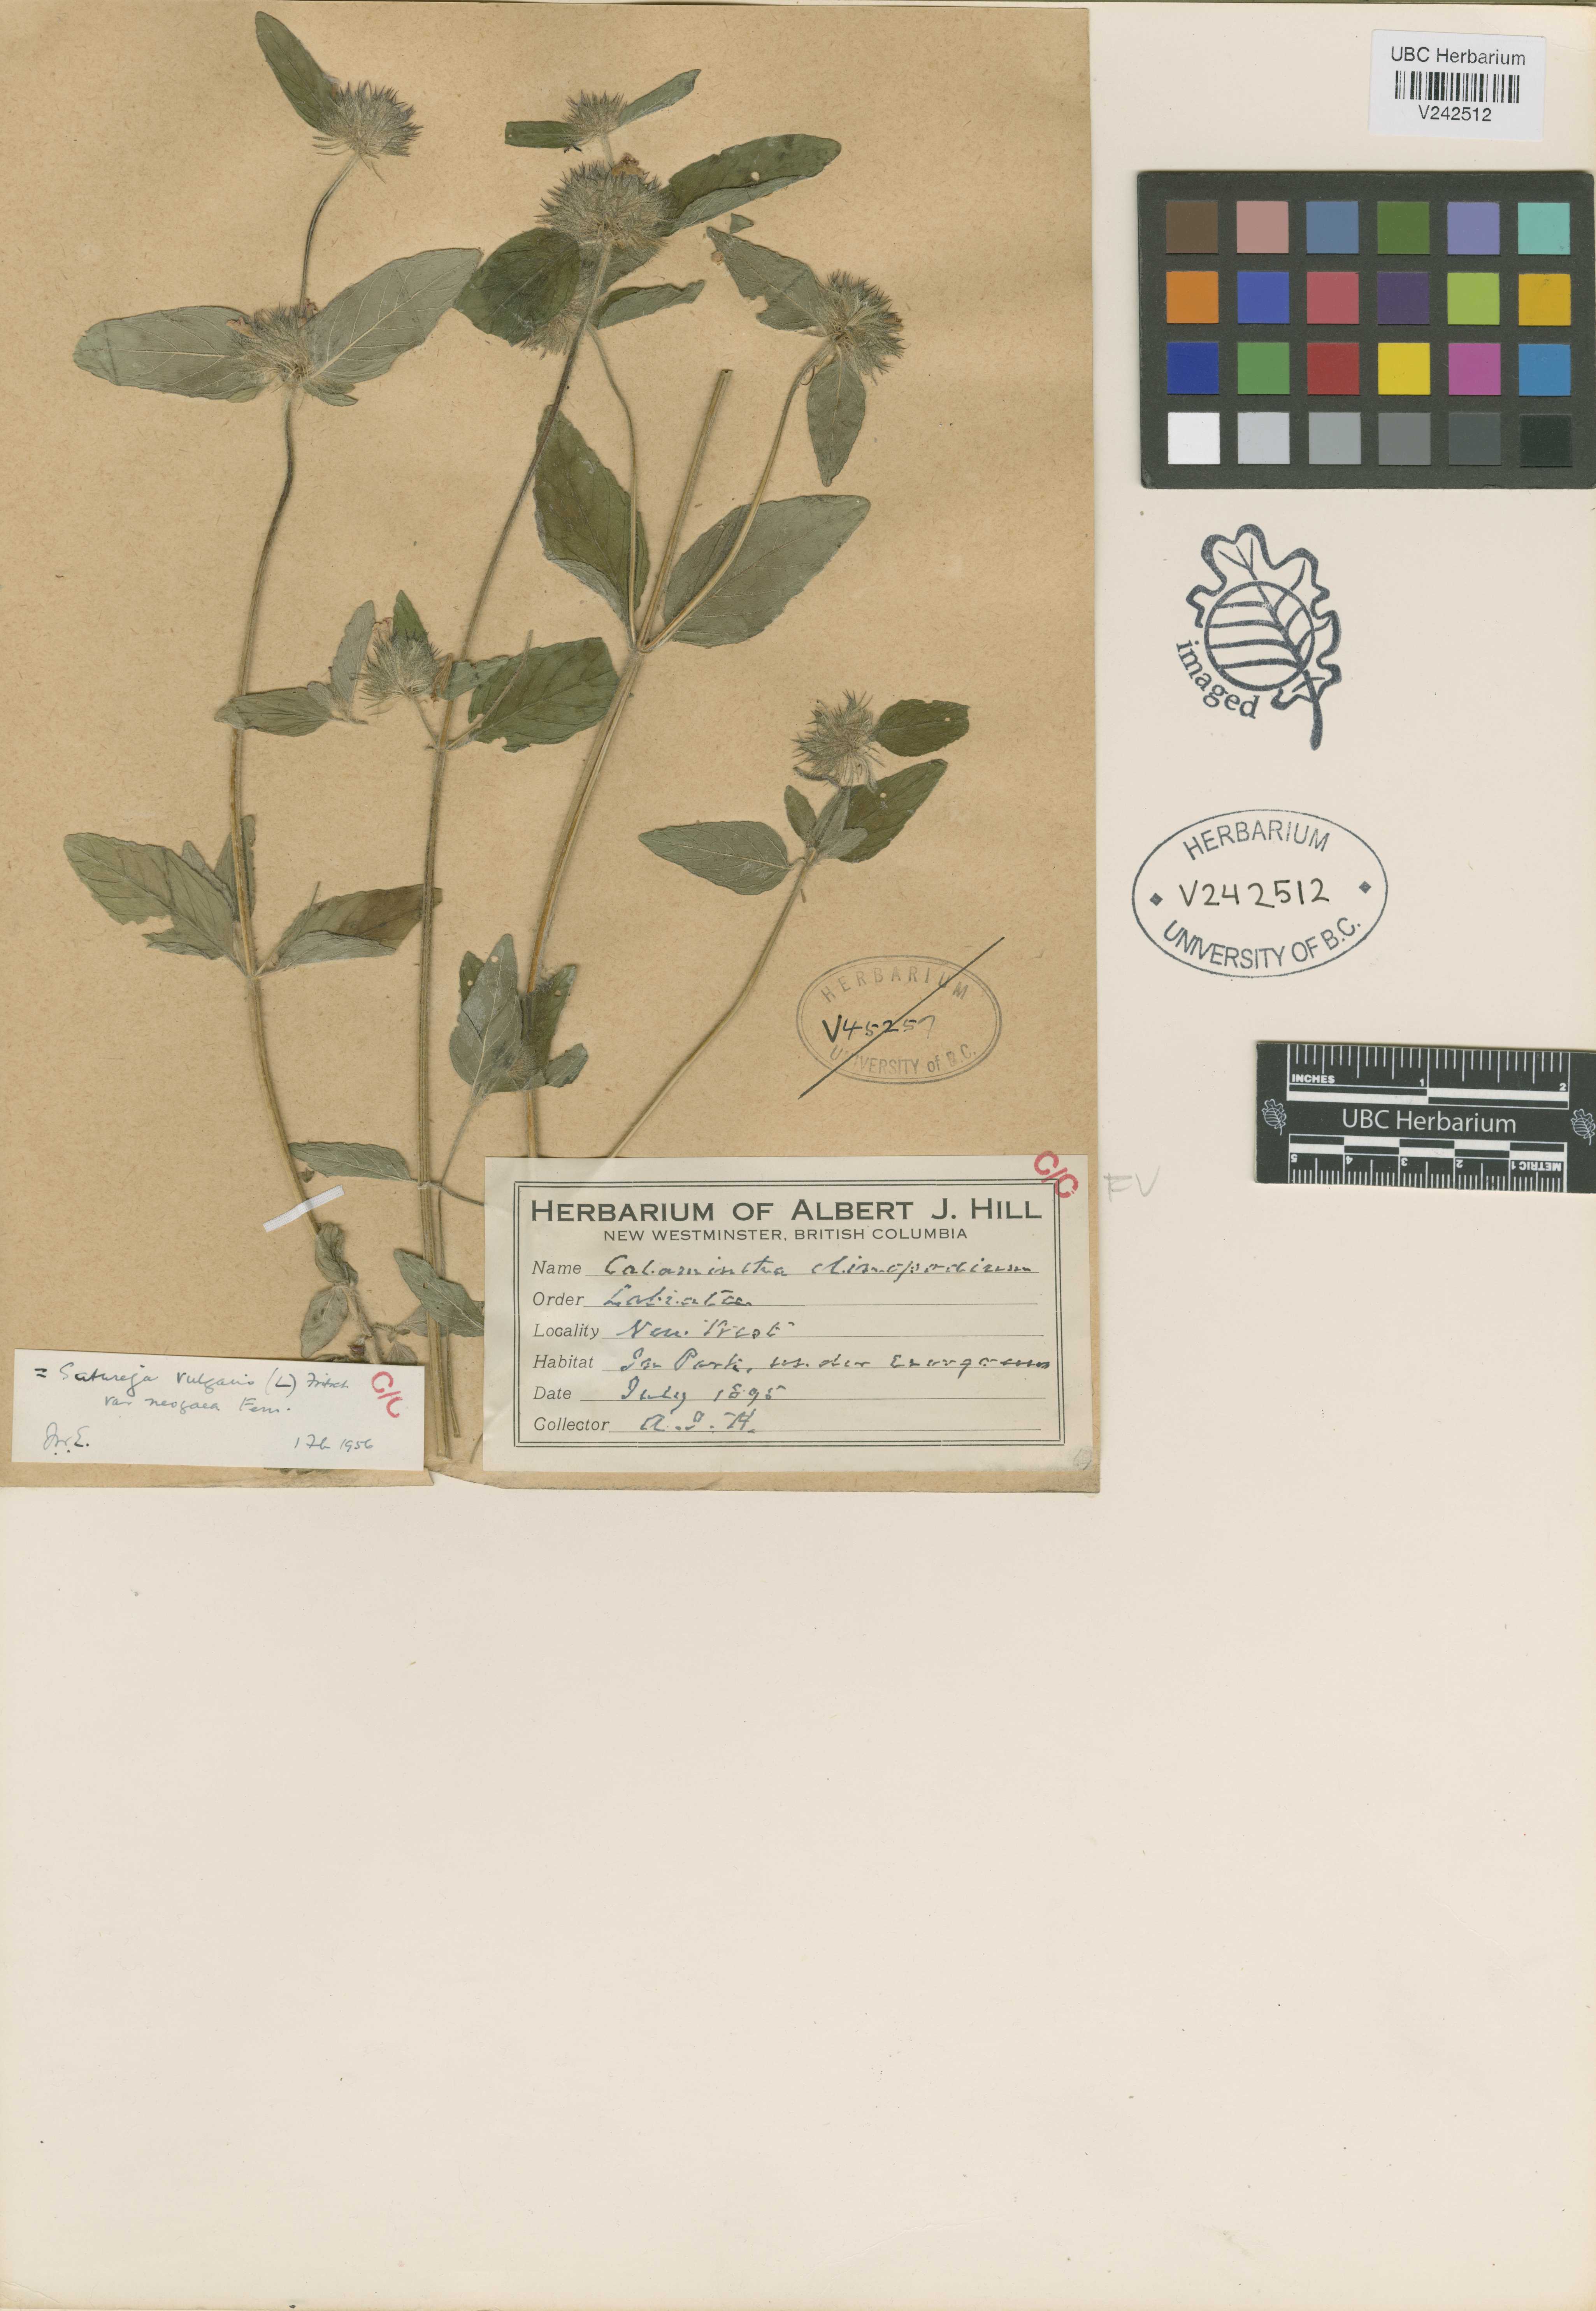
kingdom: Plantae
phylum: Tracheophyta
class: Magnoliopsida
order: Lamiales
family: Lamiaceae
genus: Clinopodium
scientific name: Clinopodium vulgare
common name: Wild basil
